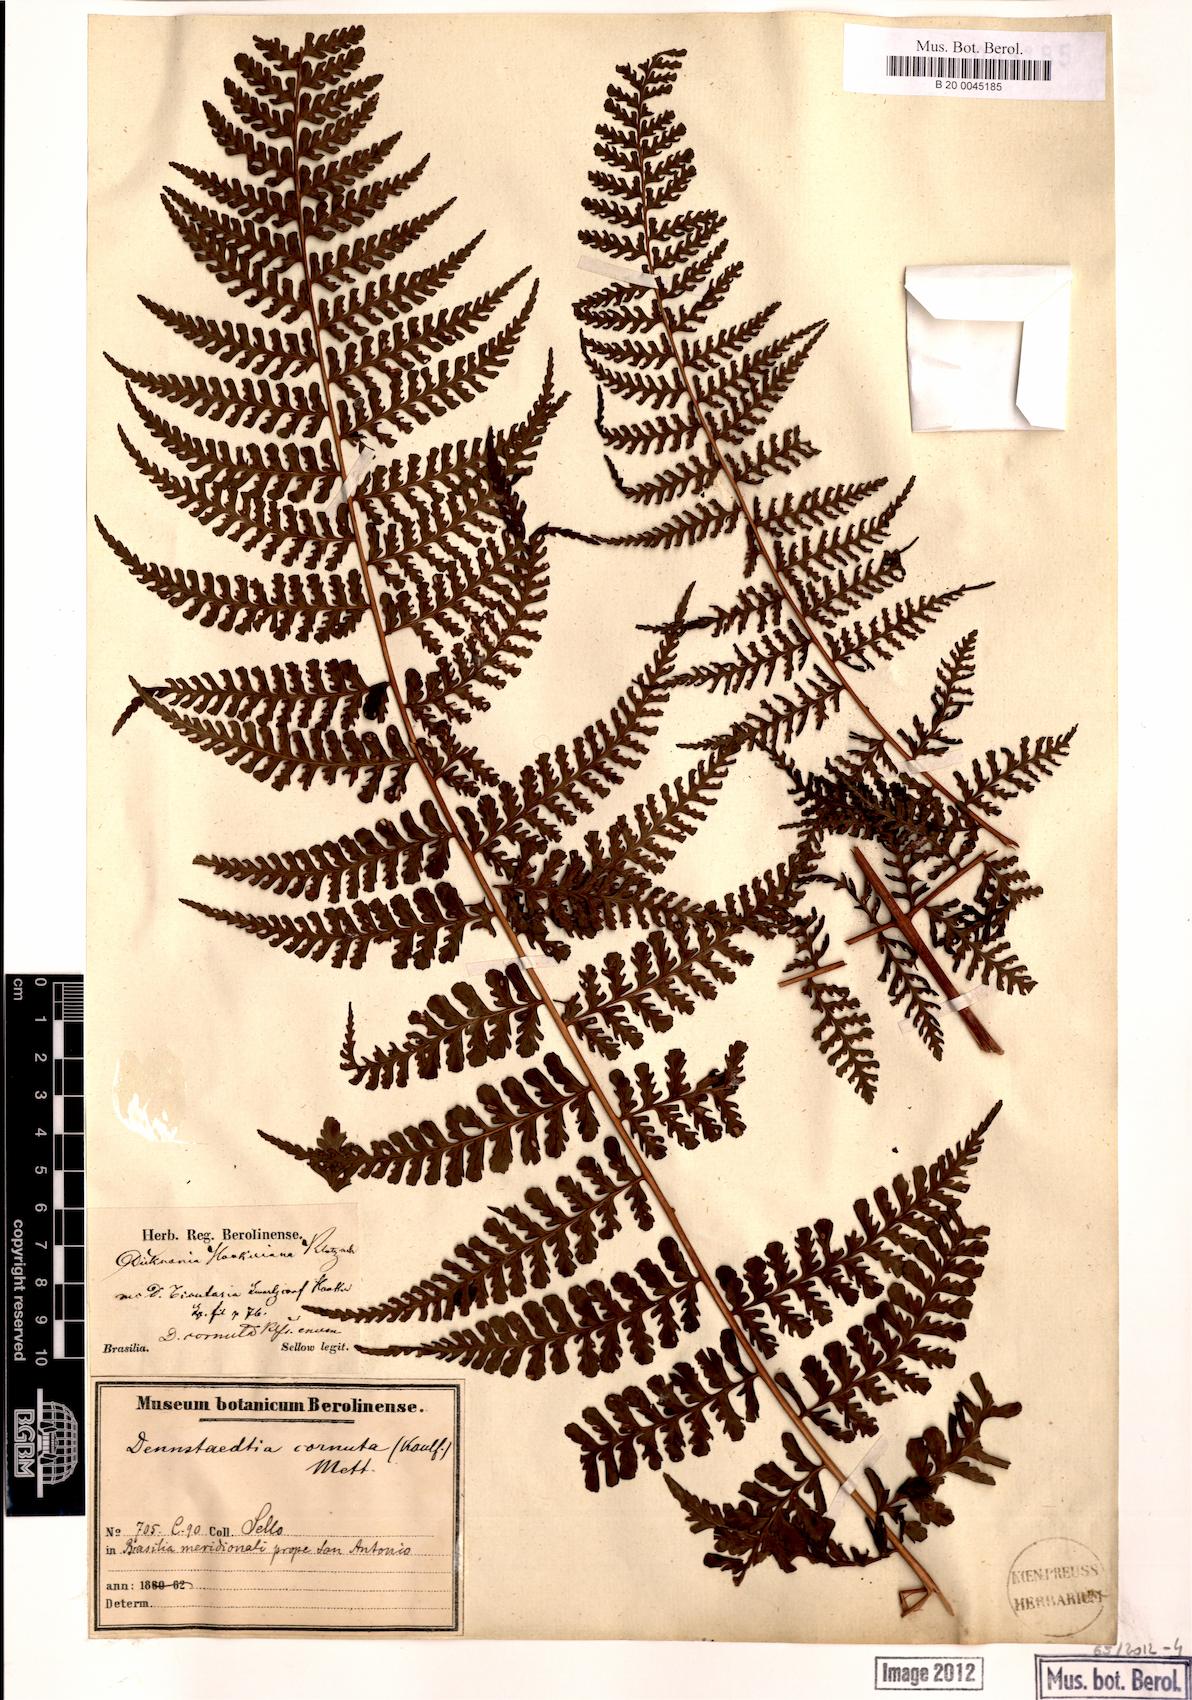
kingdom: Plantae
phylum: Tracheophyta
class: Polypodiopsida
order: Polypodiales
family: Dennstaedtiaceae
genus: Dennstaedtia
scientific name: Dennstaedtia cornuta
